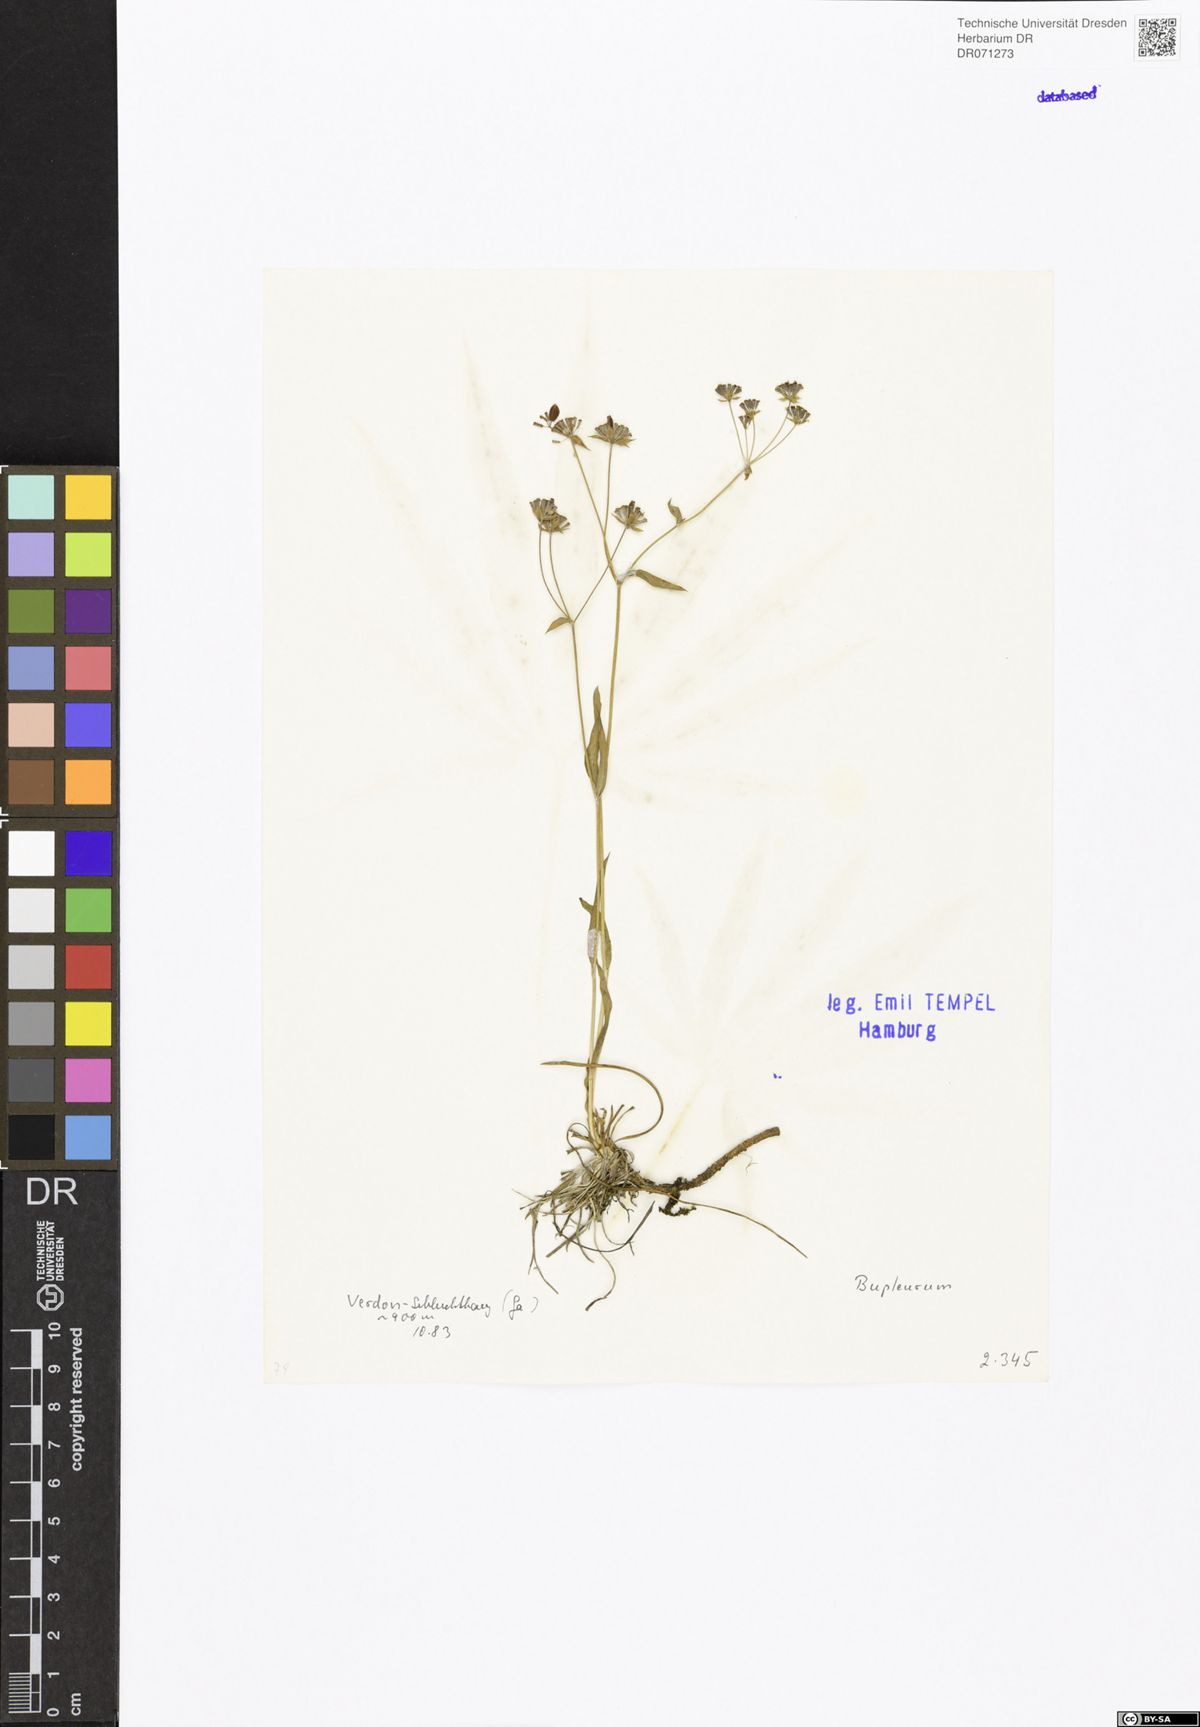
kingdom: Plantae
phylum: Tracheophyta
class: Magnoliopsida
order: Apiales
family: Apiaceae
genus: Bupleurum
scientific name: Bupleurum
